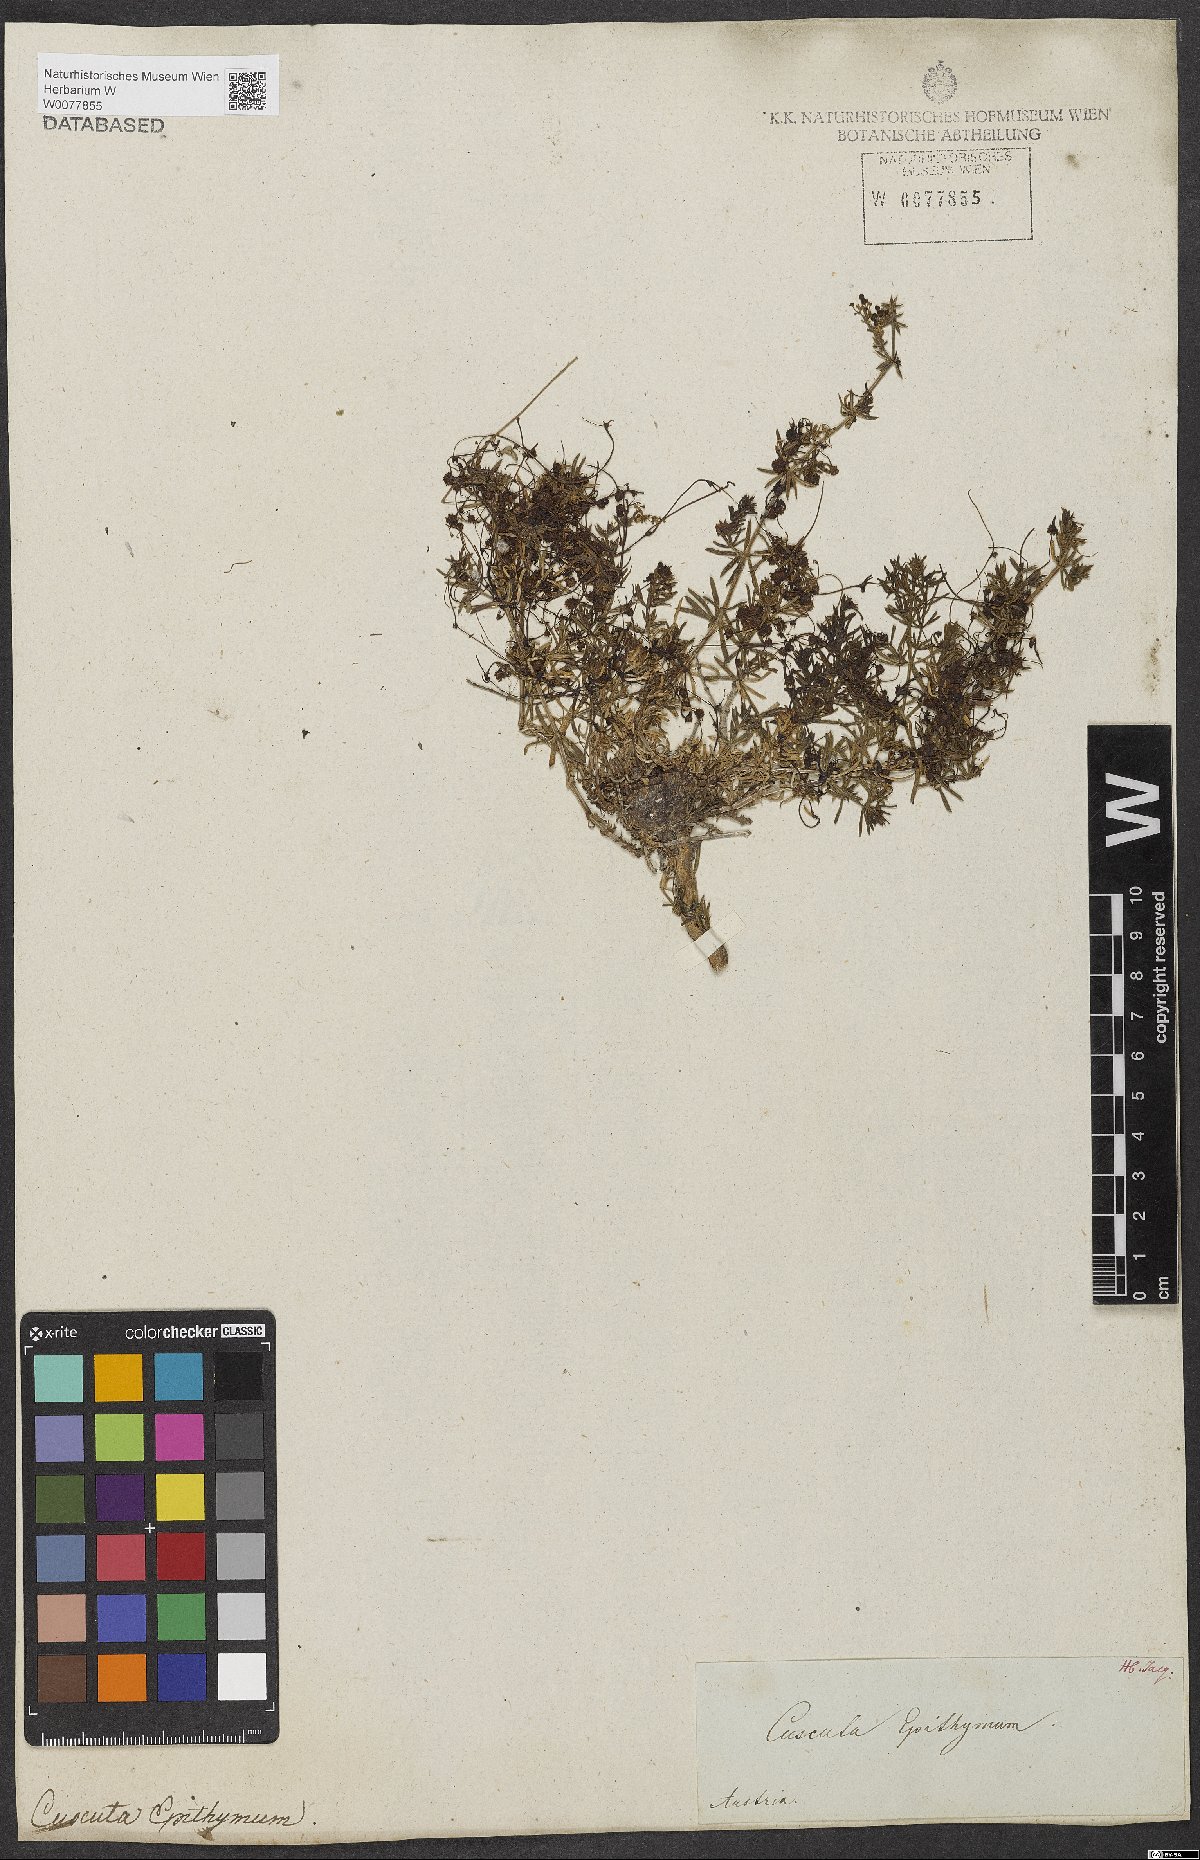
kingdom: Plantae
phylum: Tracheophyta
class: Magnoliopsida
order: Solanales
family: Convolvulaceae
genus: Cuscuta
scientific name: Cuscuta epithymum
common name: Clover dodder
